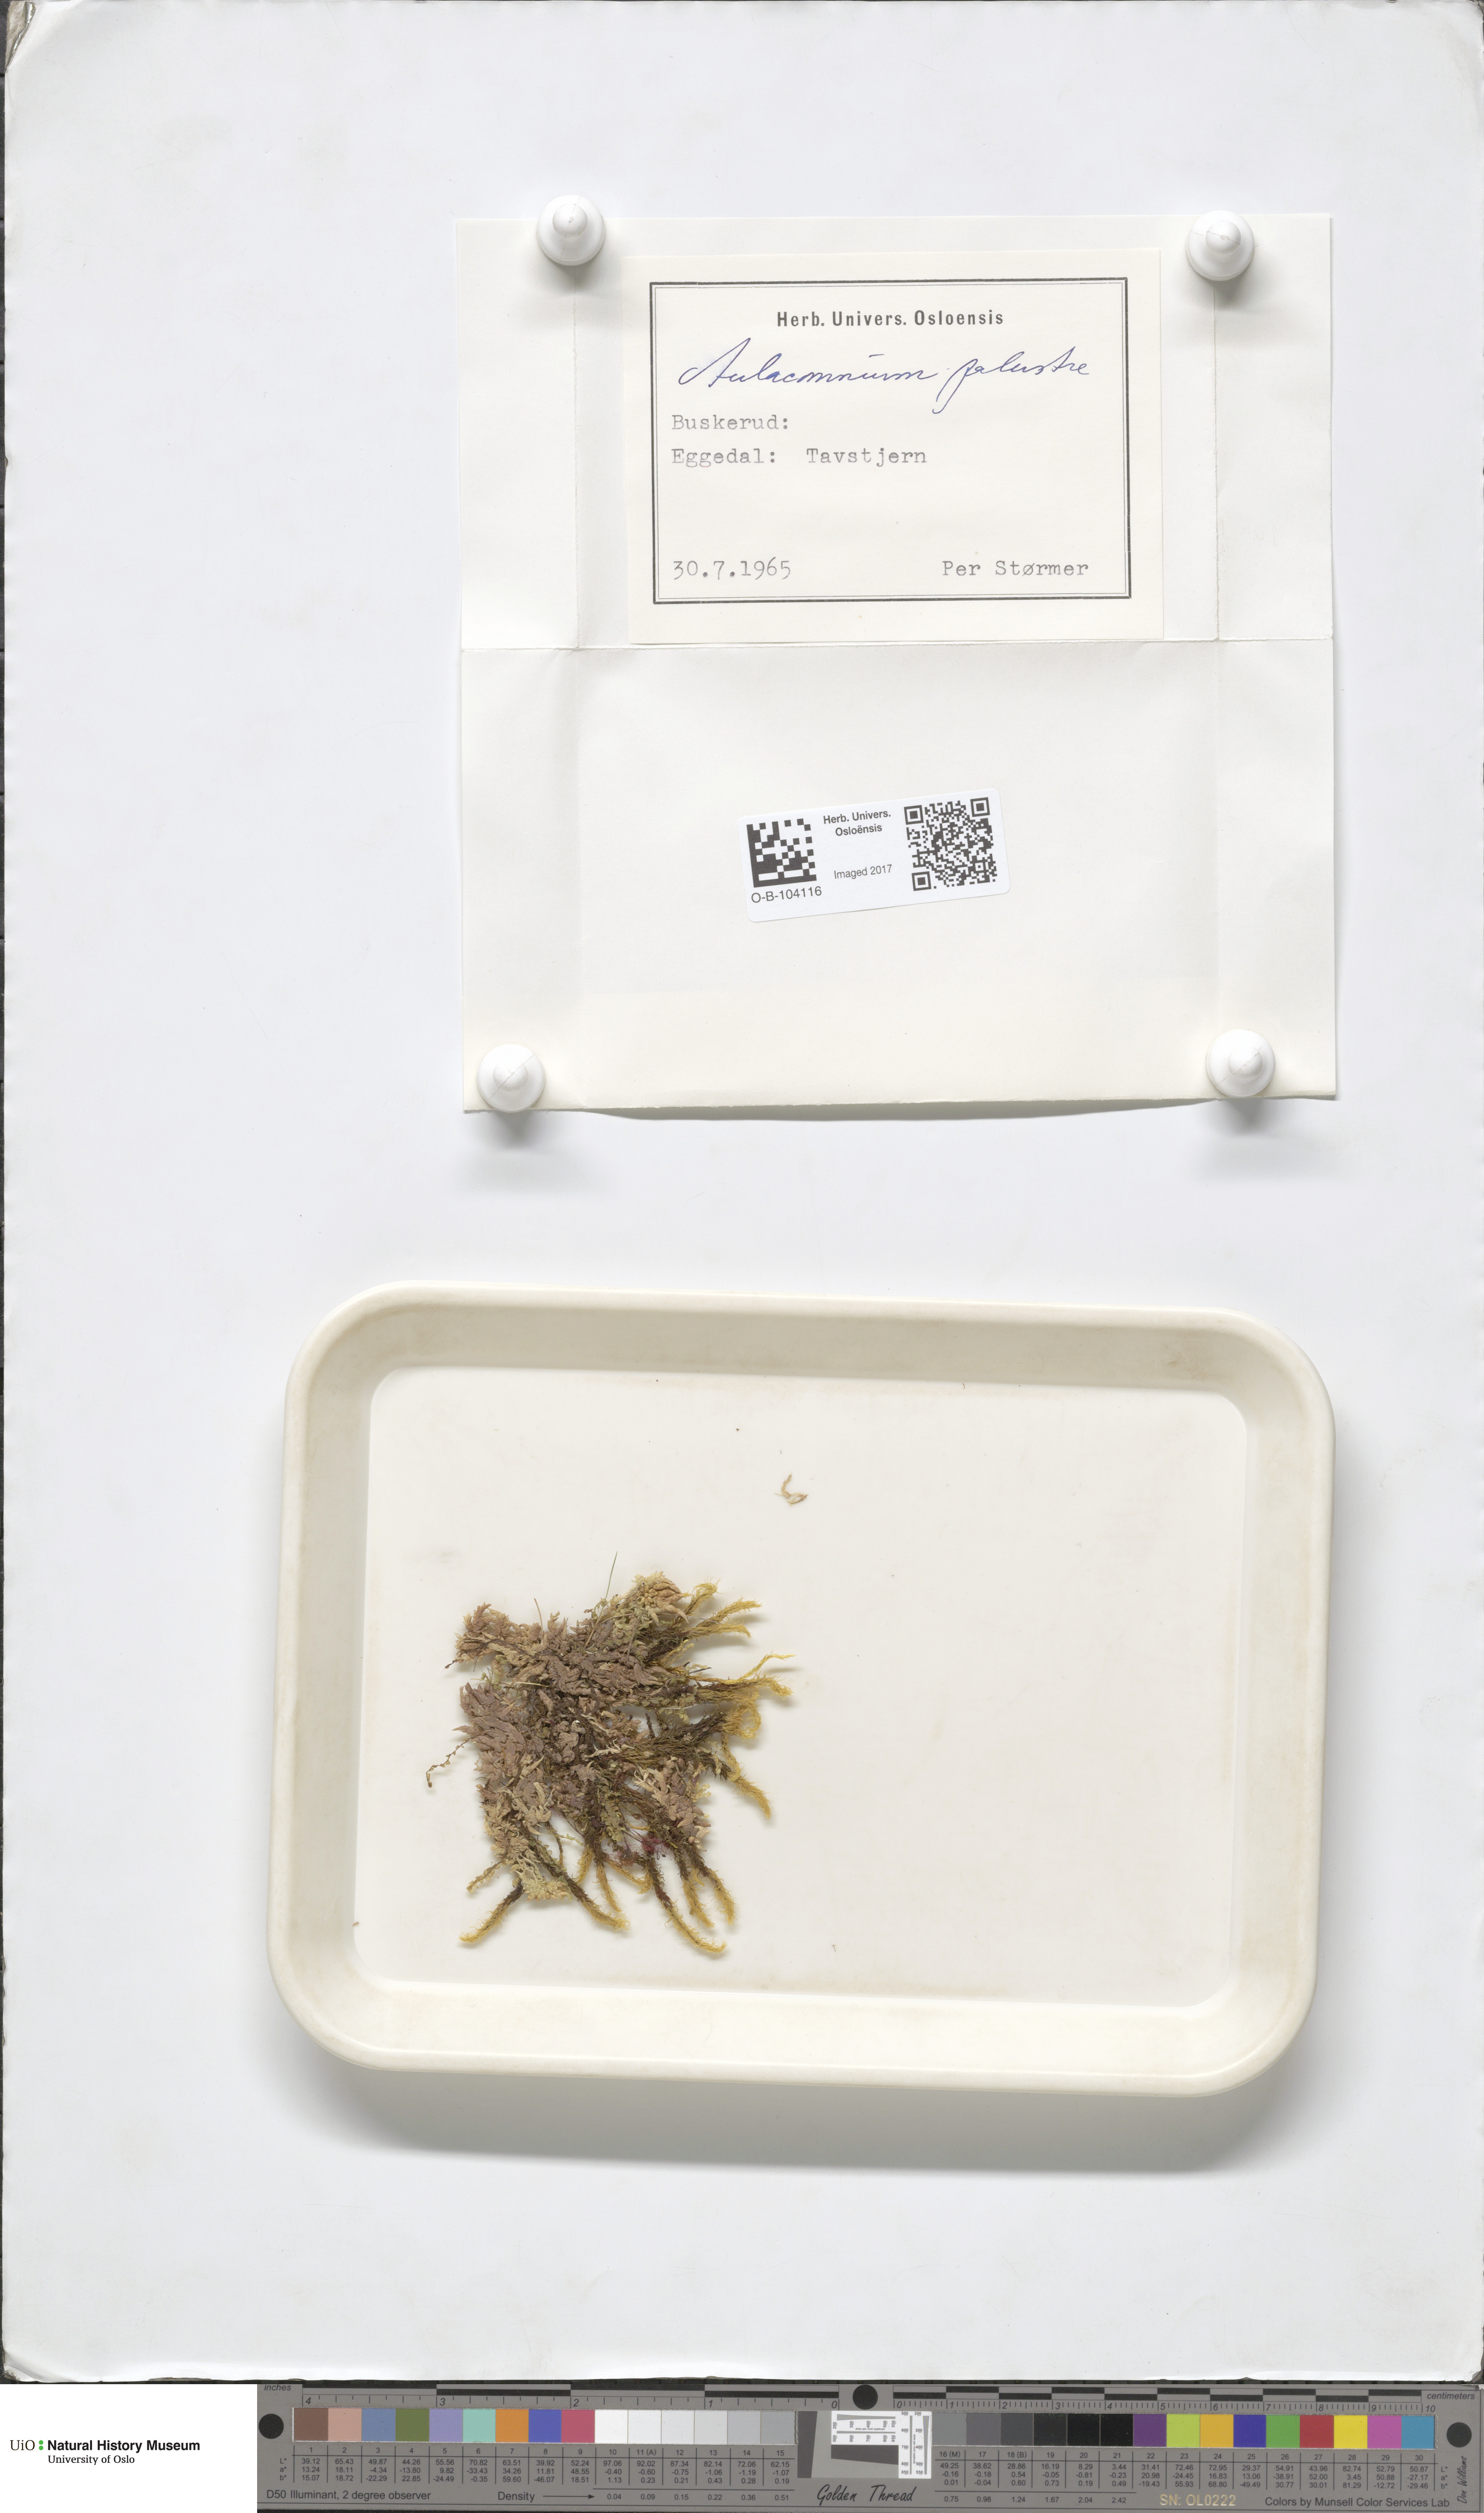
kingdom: Plantae
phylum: Bryophyta
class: Bryopsida
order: Aulacomniales
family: Aulacomniaceae
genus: Aulacomnium
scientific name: Aulacomnium palustre
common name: Bog groove-moss
